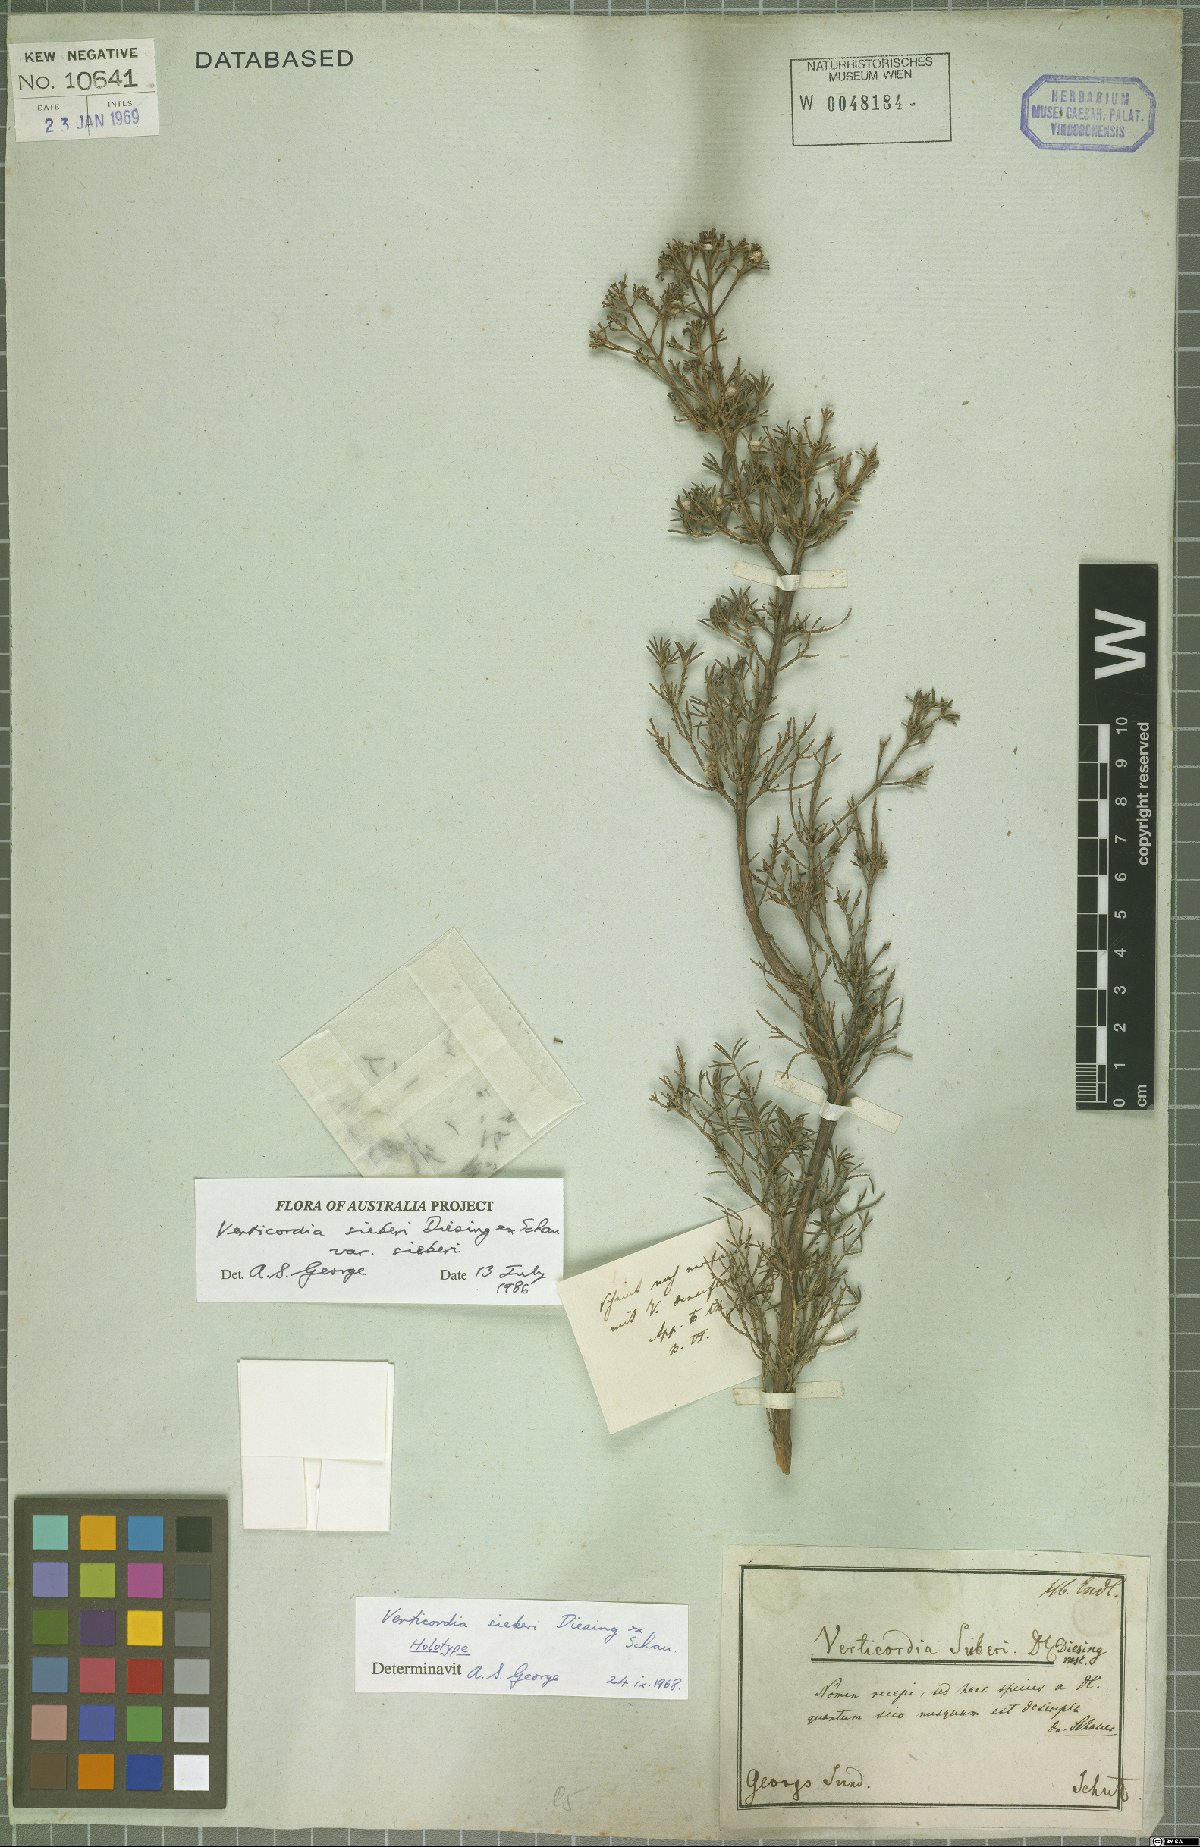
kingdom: Plantae
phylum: Tracheophyta
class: Magnoliopsida
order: Myrtales
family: Myrtaceae
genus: Verticordia
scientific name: Verticordia sieberi
